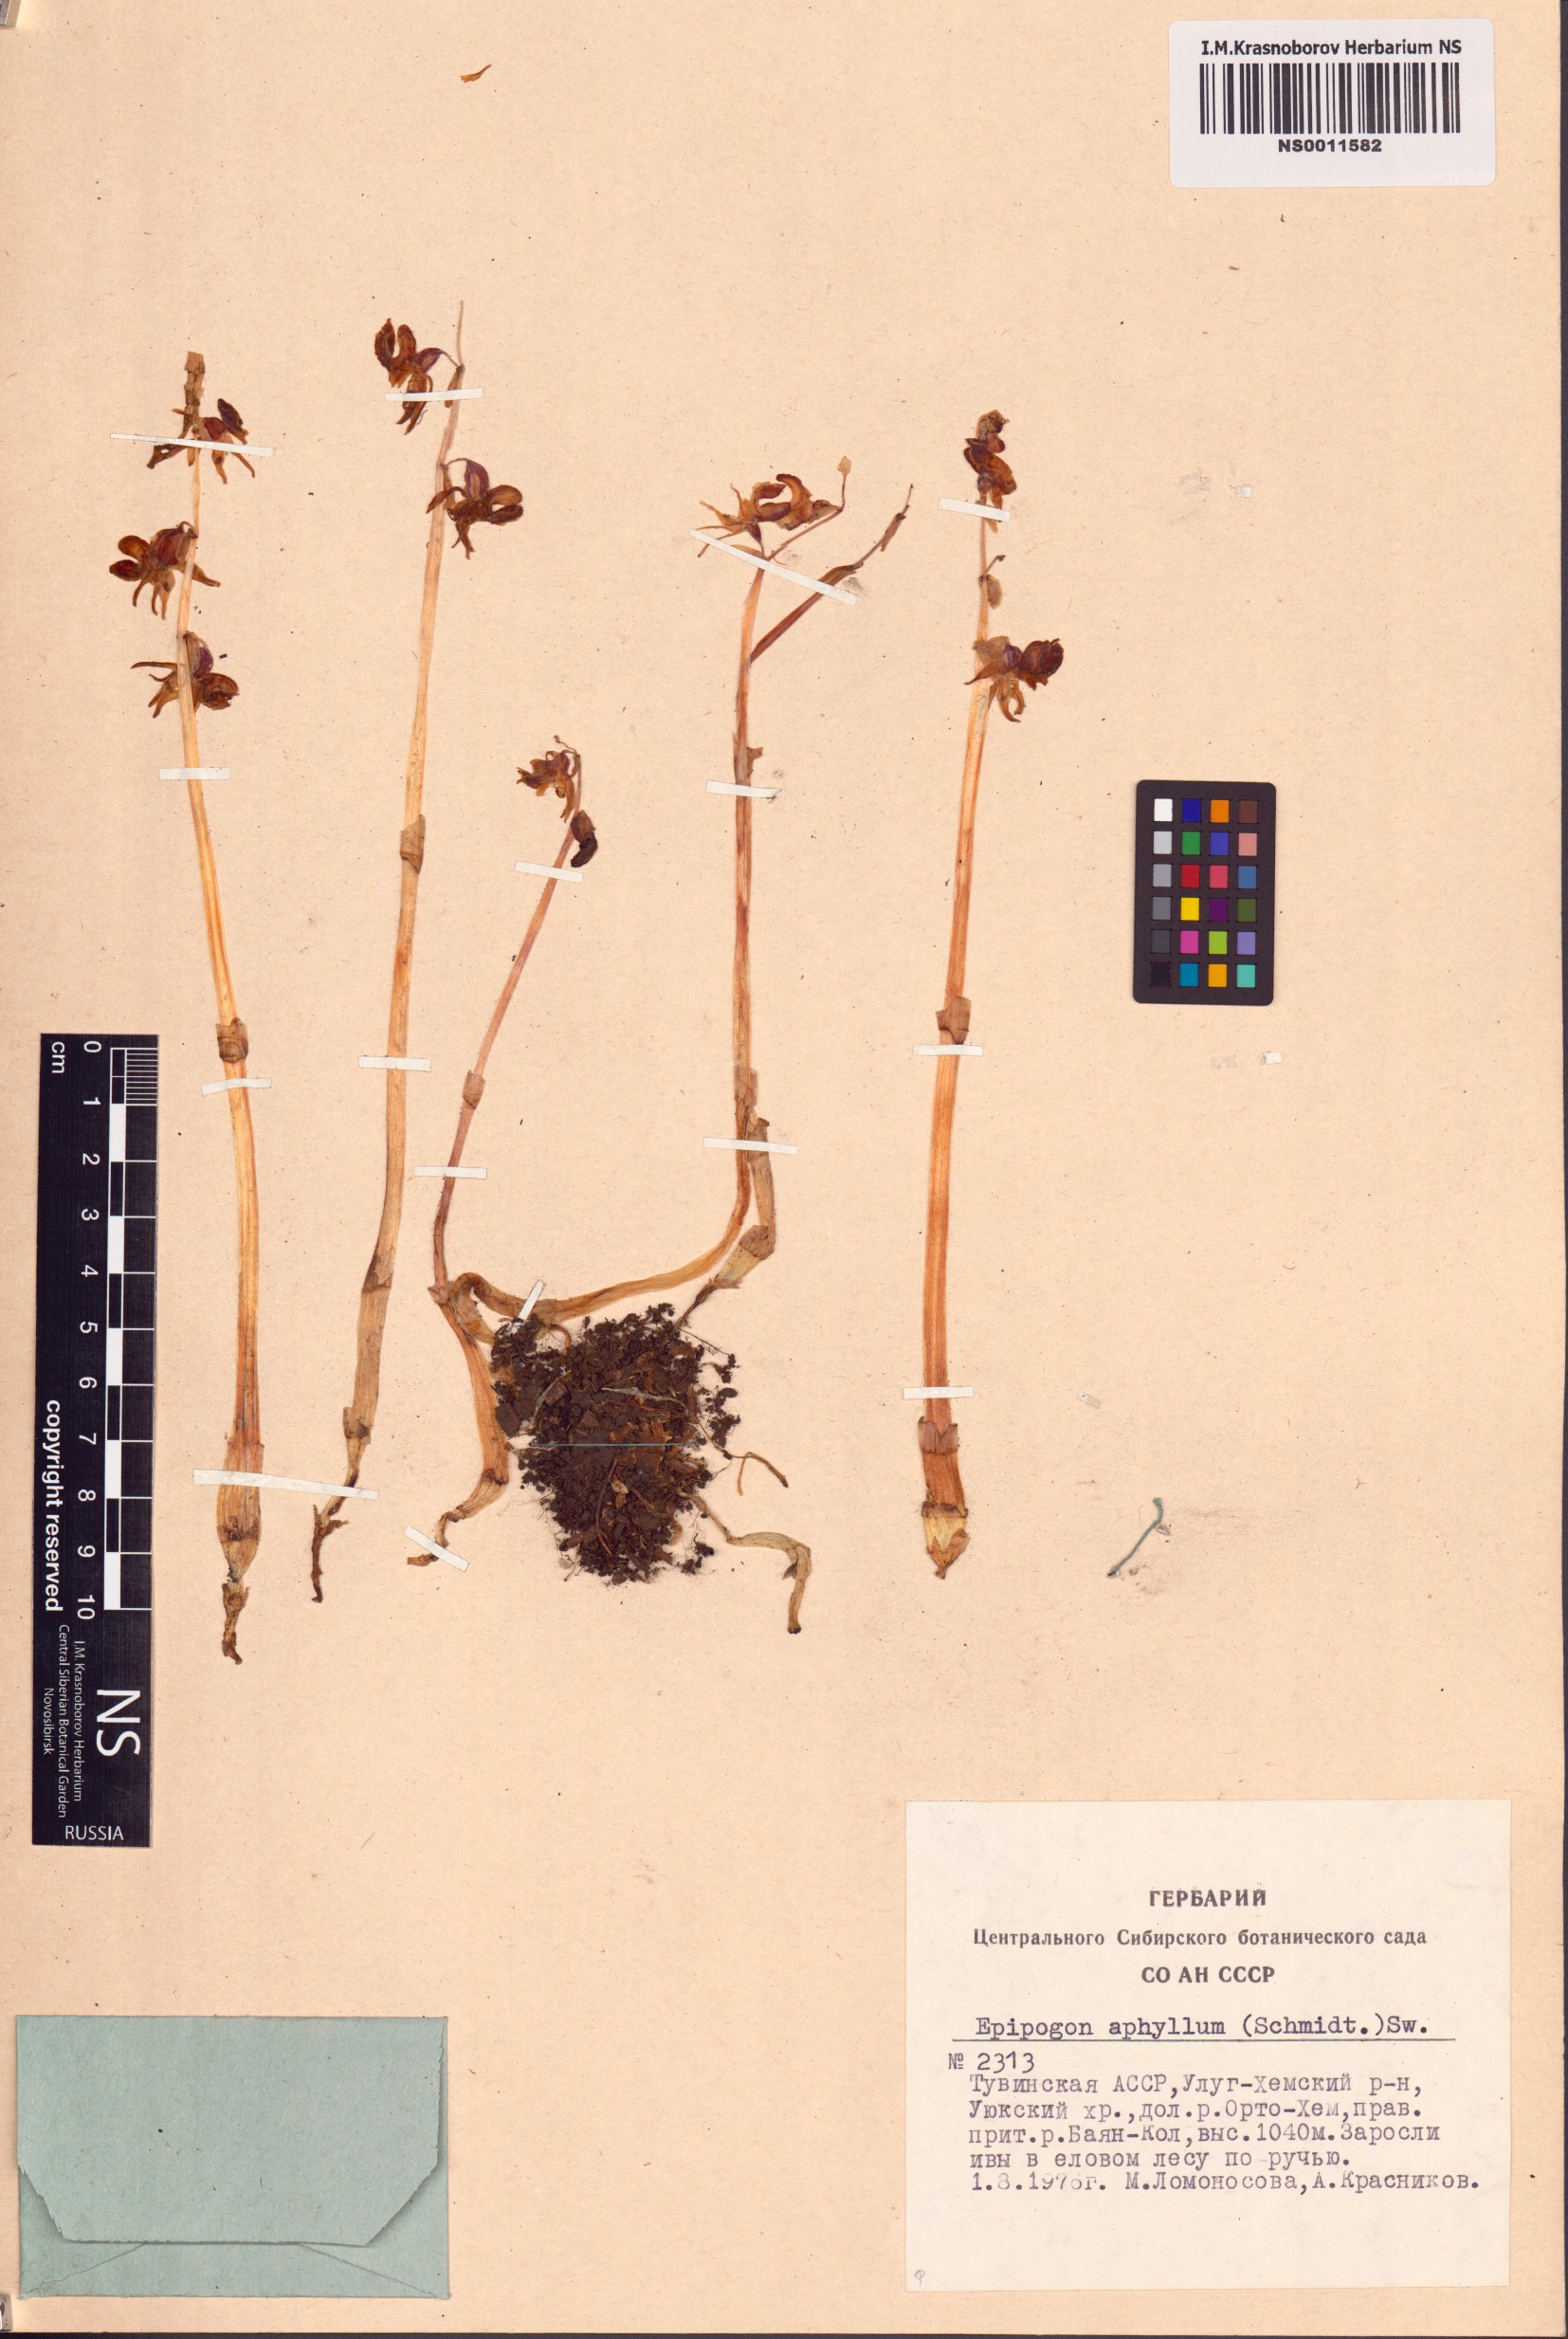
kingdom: Plantae
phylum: Tracheophyta
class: Liliopsida
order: Asparagales
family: Orchidaceae
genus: Epipogium
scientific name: Epipogium aphyllum
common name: Ghost orchid
